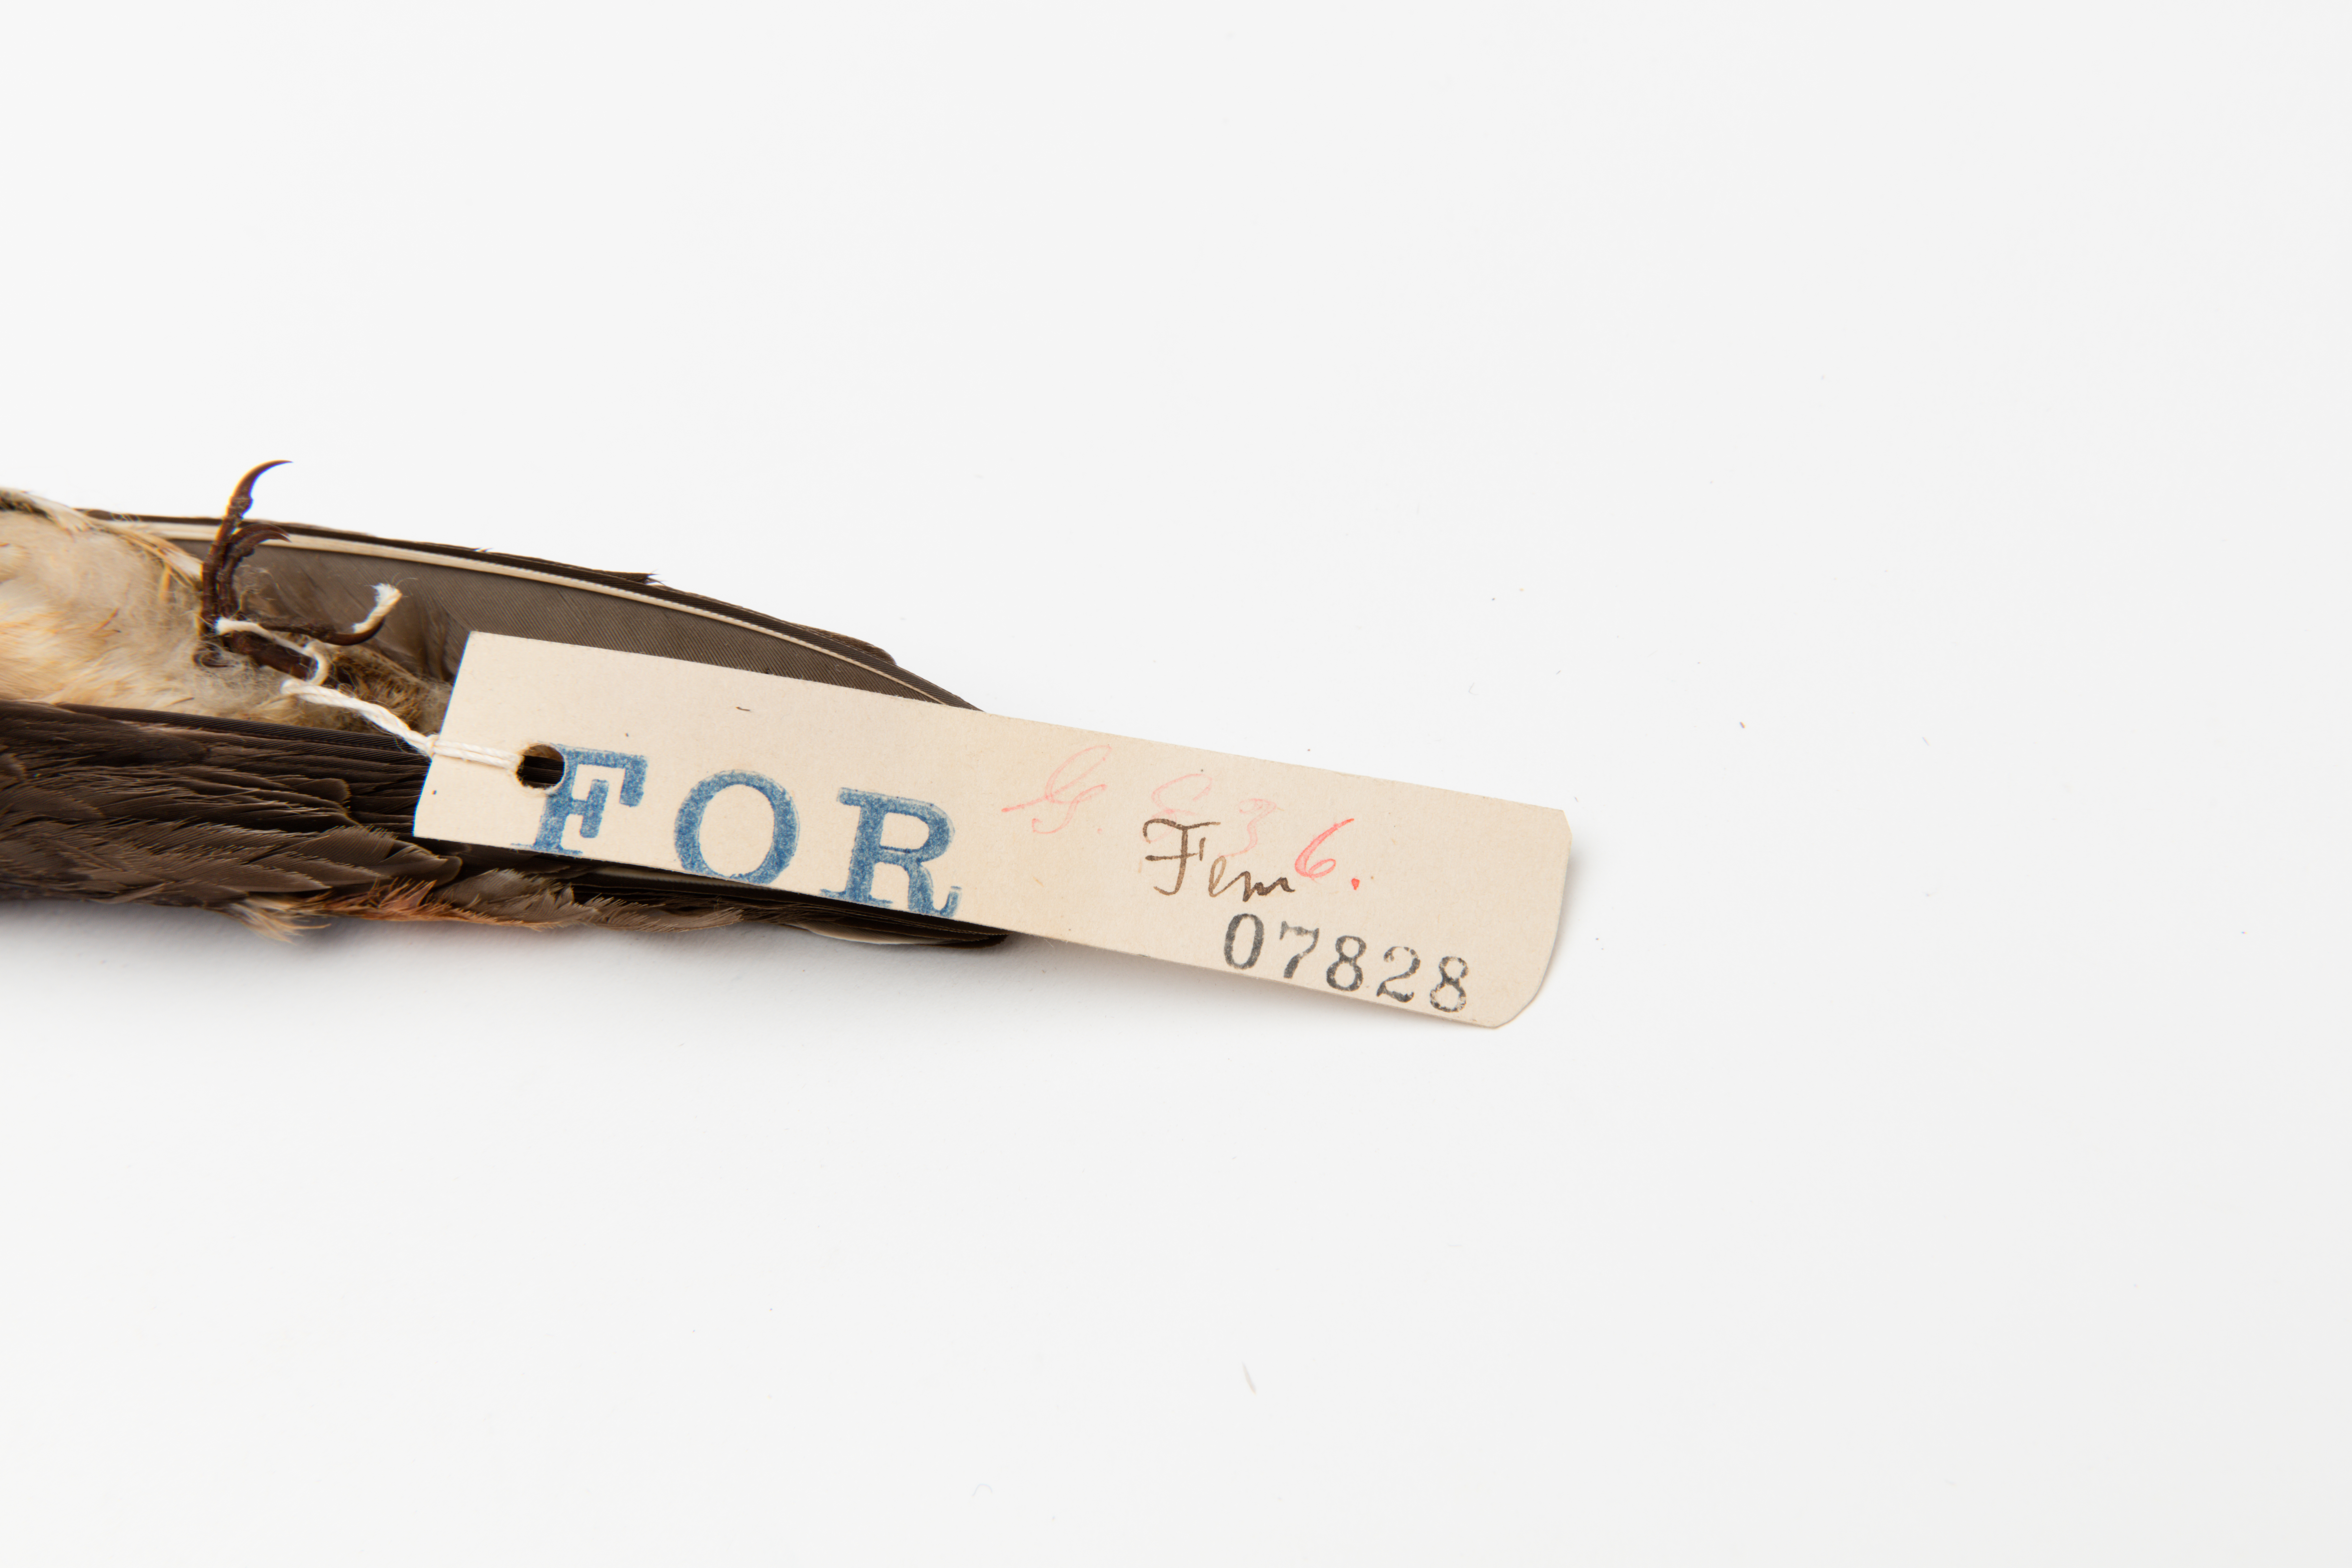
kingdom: Animalia
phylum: Chordata
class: Aves
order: Passeriformes
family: Hirundinidae
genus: Petrochelidon
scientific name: Petrochelidon pyrrhonota
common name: American cliff swallow
